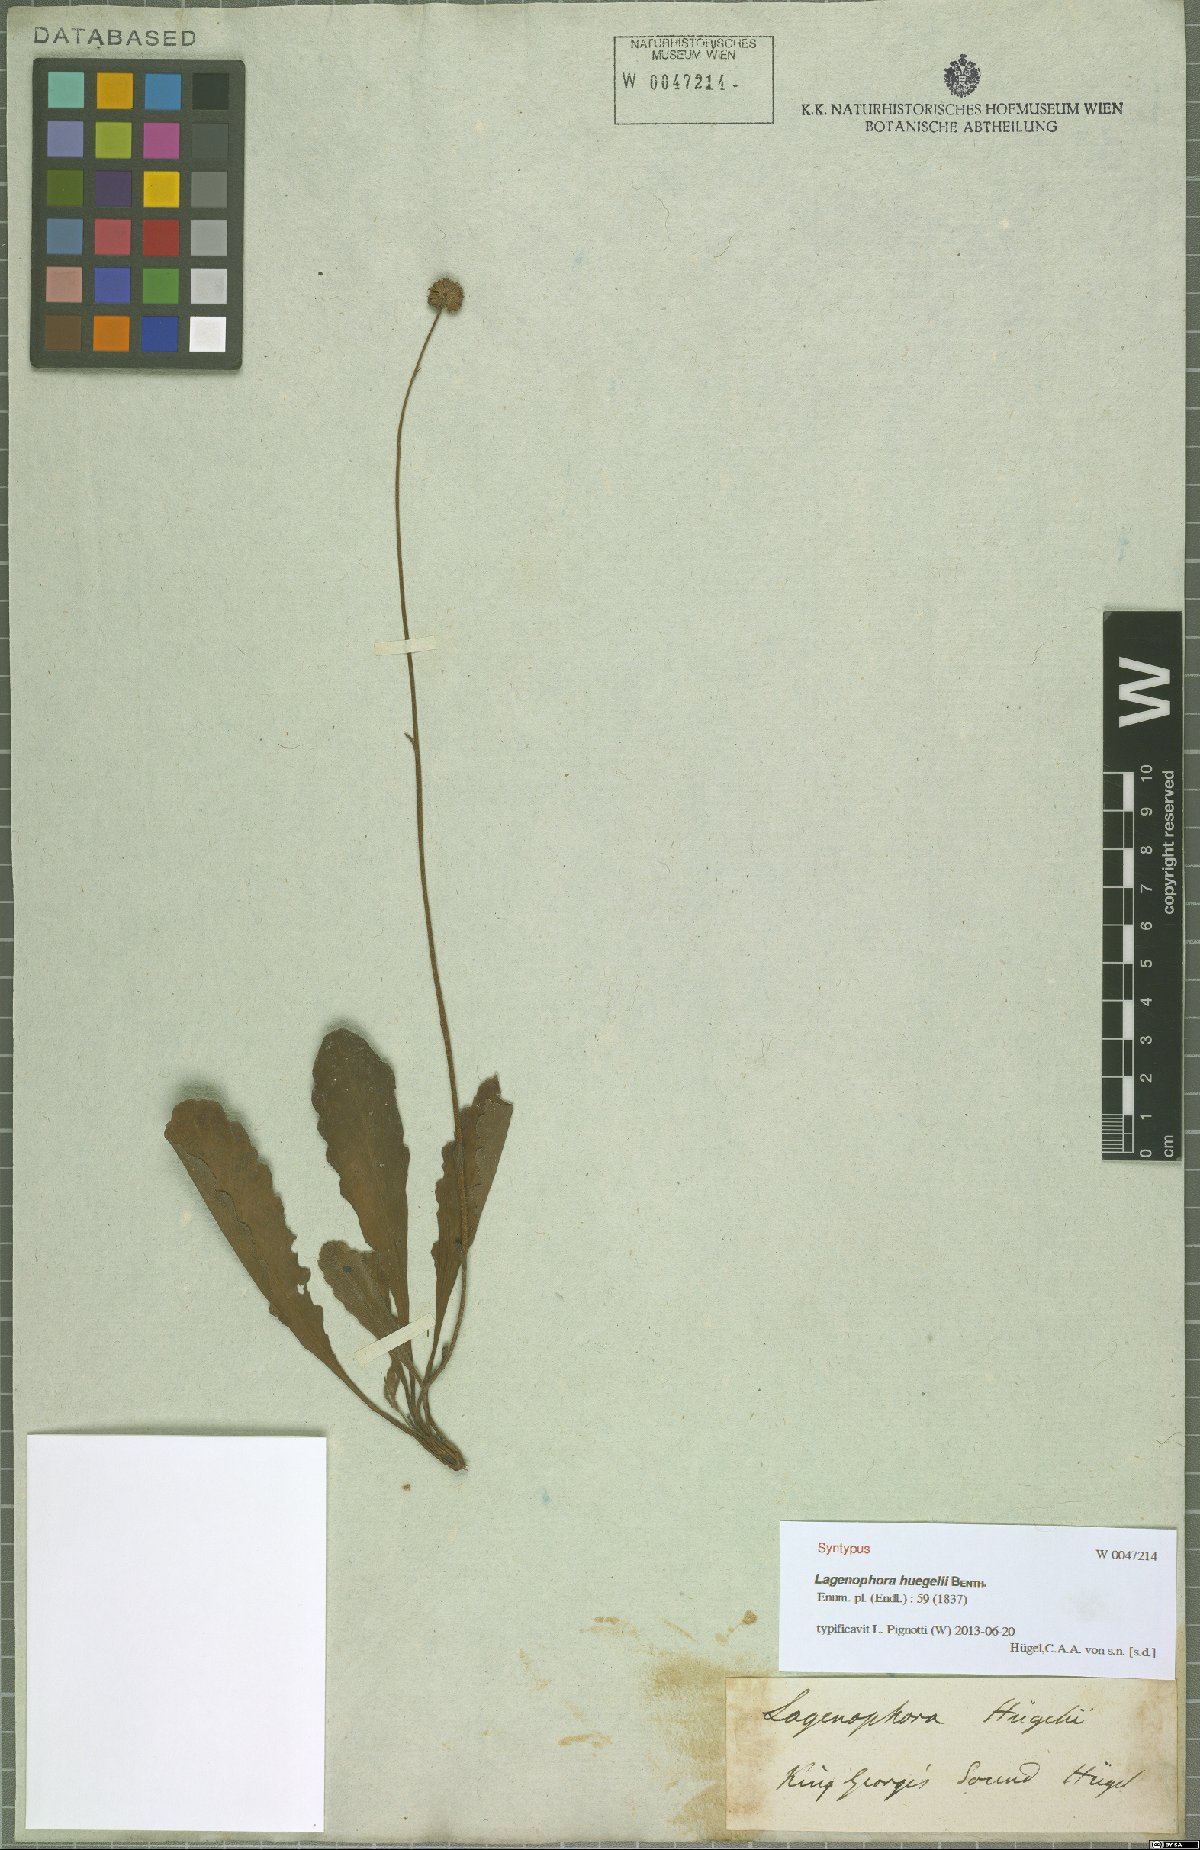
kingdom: Plantae
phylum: Tracheophyta
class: Magnoliopsida
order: Asterales
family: Asteraceae
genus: Lagenophora
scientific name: Lagenophora huegelii
